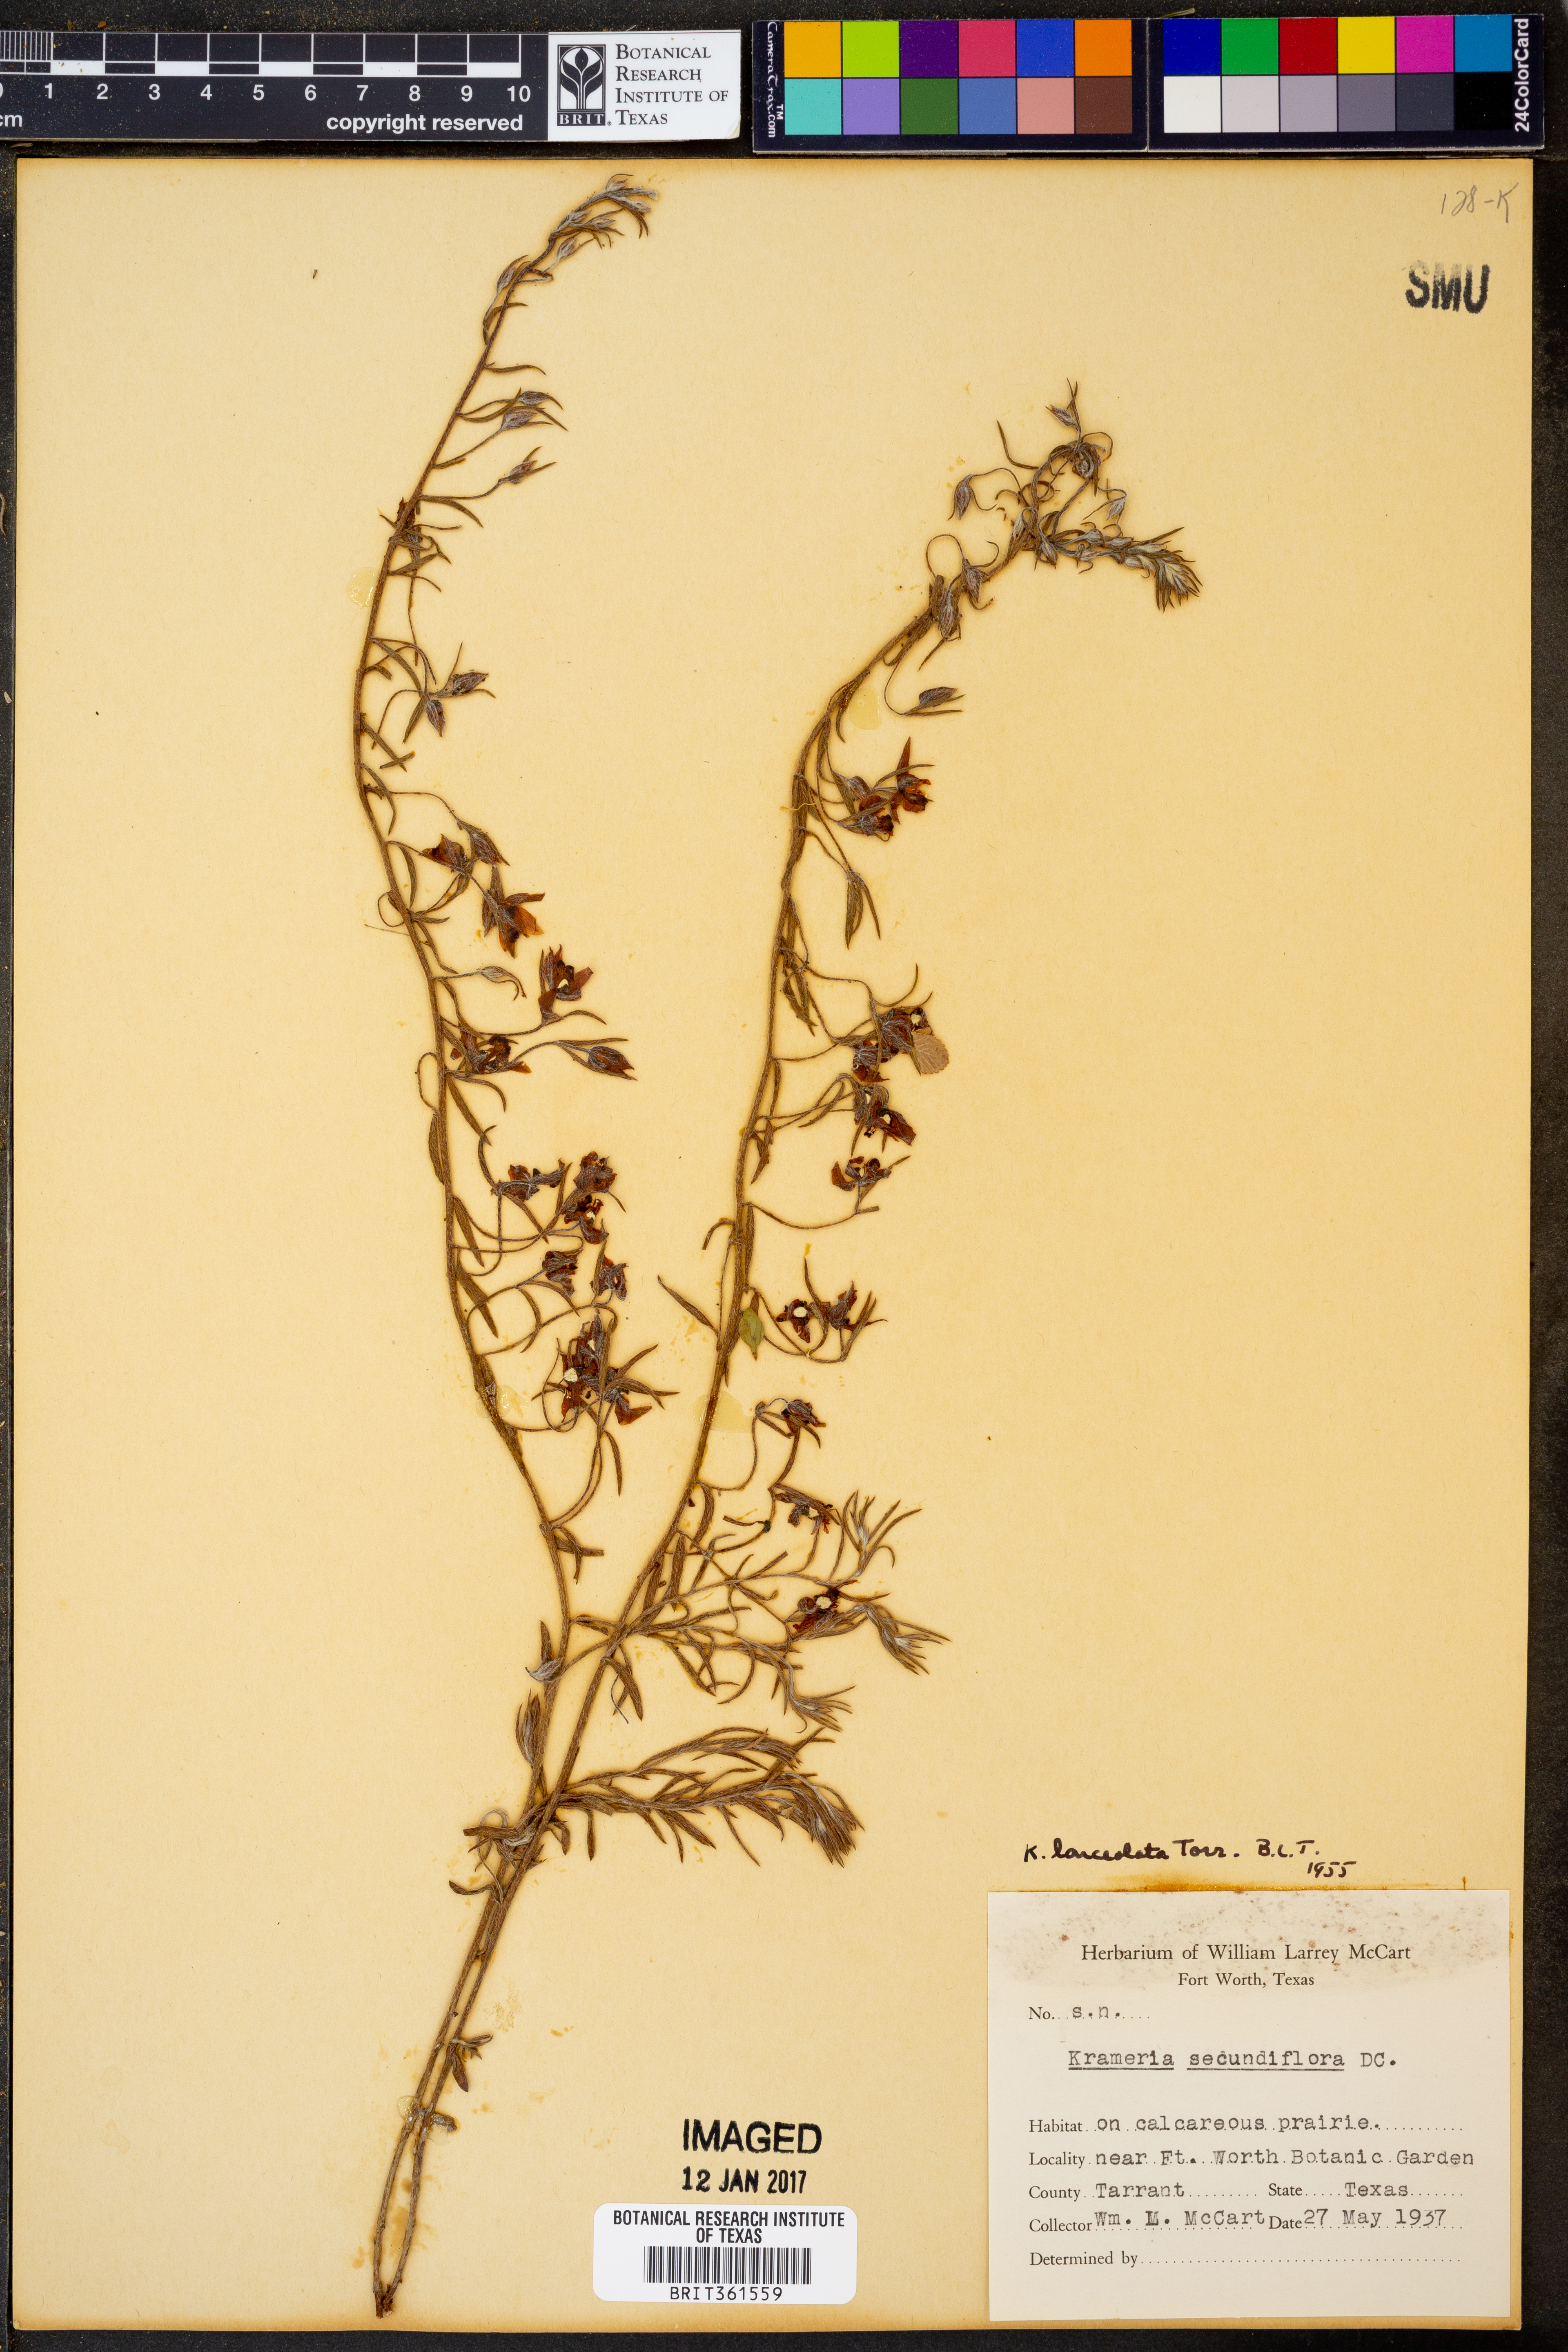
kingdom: Plantae
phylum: Tracheophyta
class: Magnoliopsida
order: Zygophyllales
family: Krameriaceae
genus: Krameria
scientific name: Krameria lanceolata
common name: Ratany
